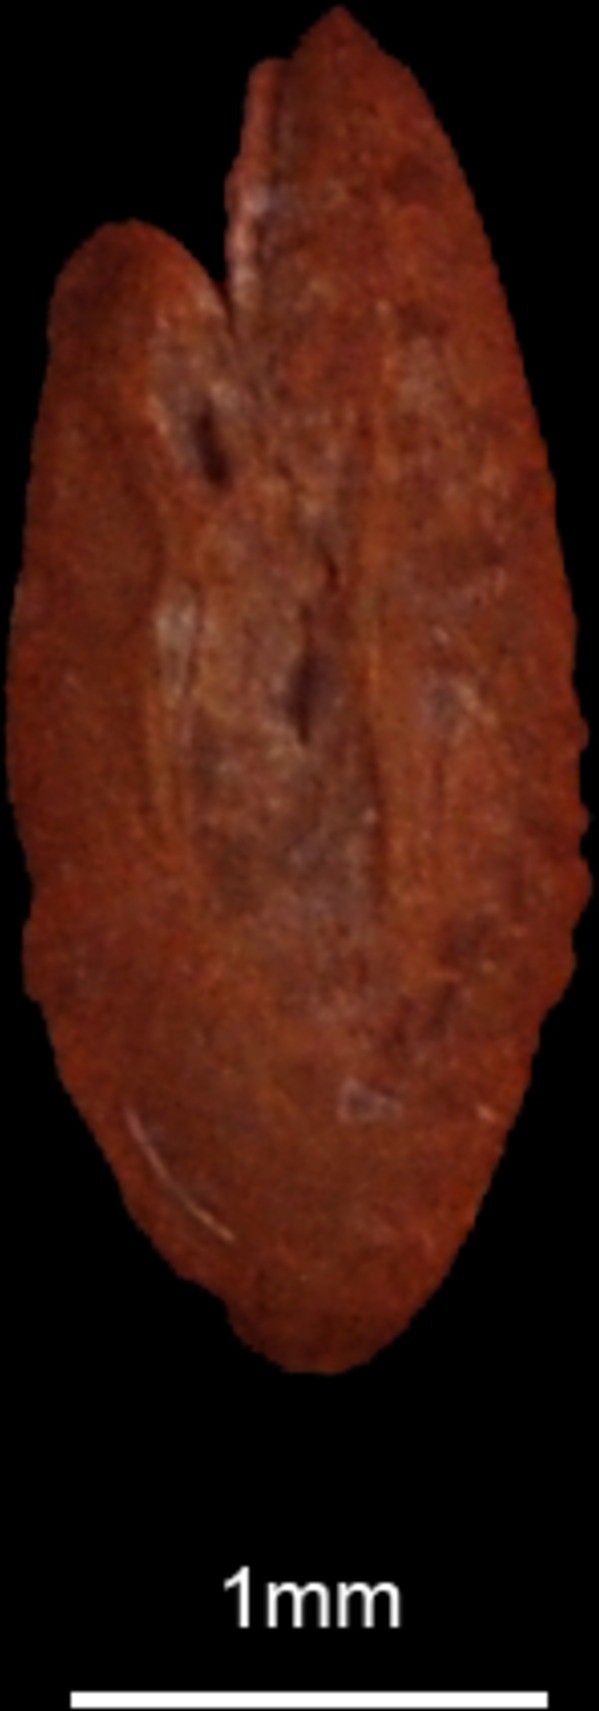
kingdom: Animalia
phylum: Chordata
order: Clupeiformes
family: Engraulidae
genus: Engraulis
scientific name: Engraulis encrasicolus
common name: European anchovy
